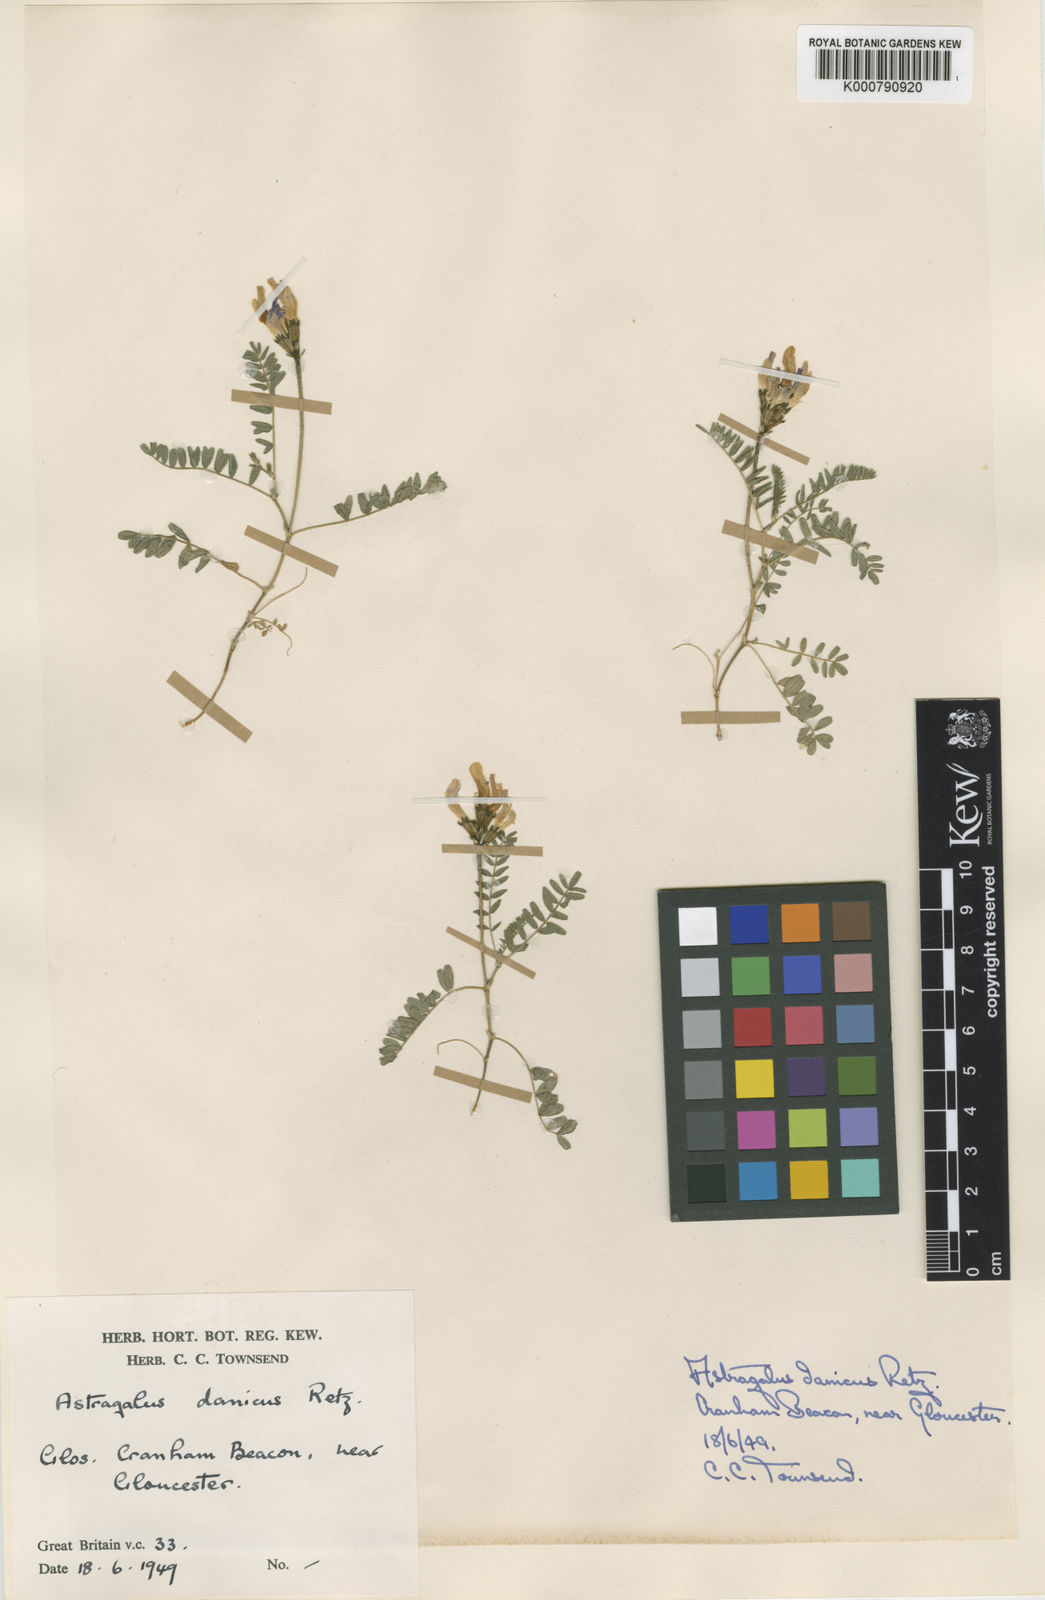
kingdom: Plantae
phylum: Tracheophyta
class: Magnoliopsida
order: Fabales
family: Fabaceae
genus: Astragalus
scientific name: Astragalus danicus
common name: Purple milk-vetch
